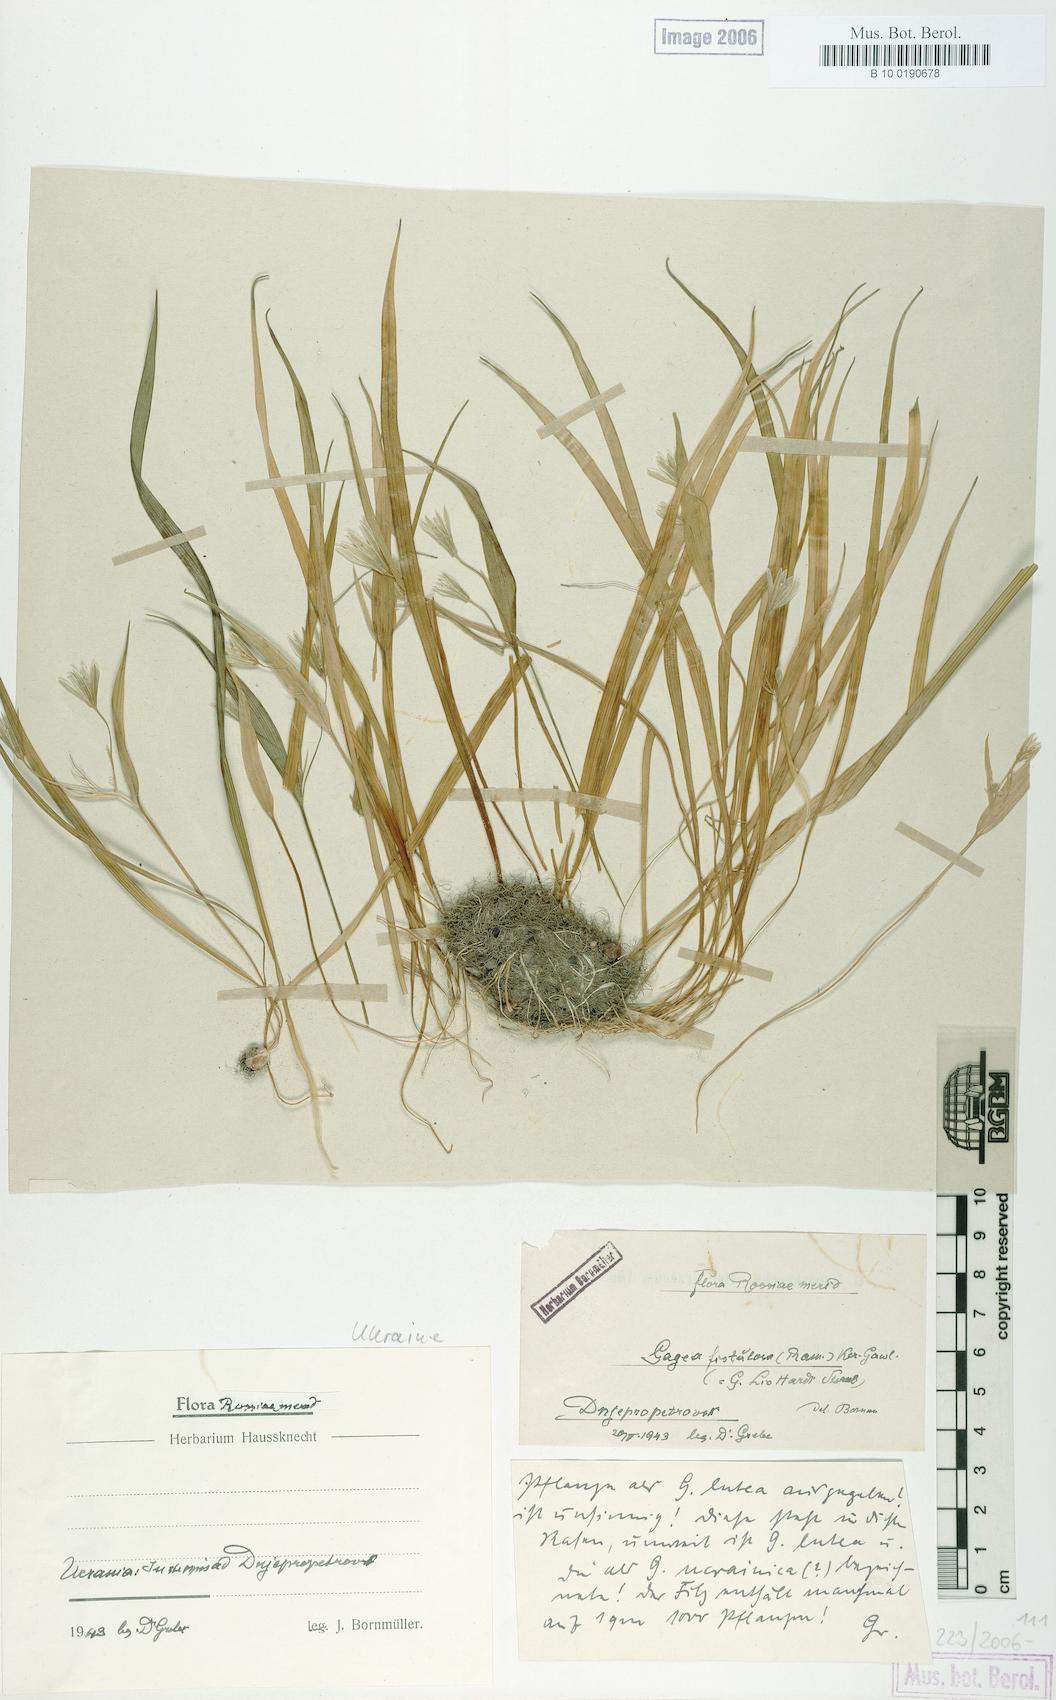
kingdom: Plantae
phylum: Tracheophyta
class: Liliopsida
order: Liliales
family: Liliaceae
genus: Gagea
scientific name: Gagea bohemica
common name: Early star-of-bethlehem
